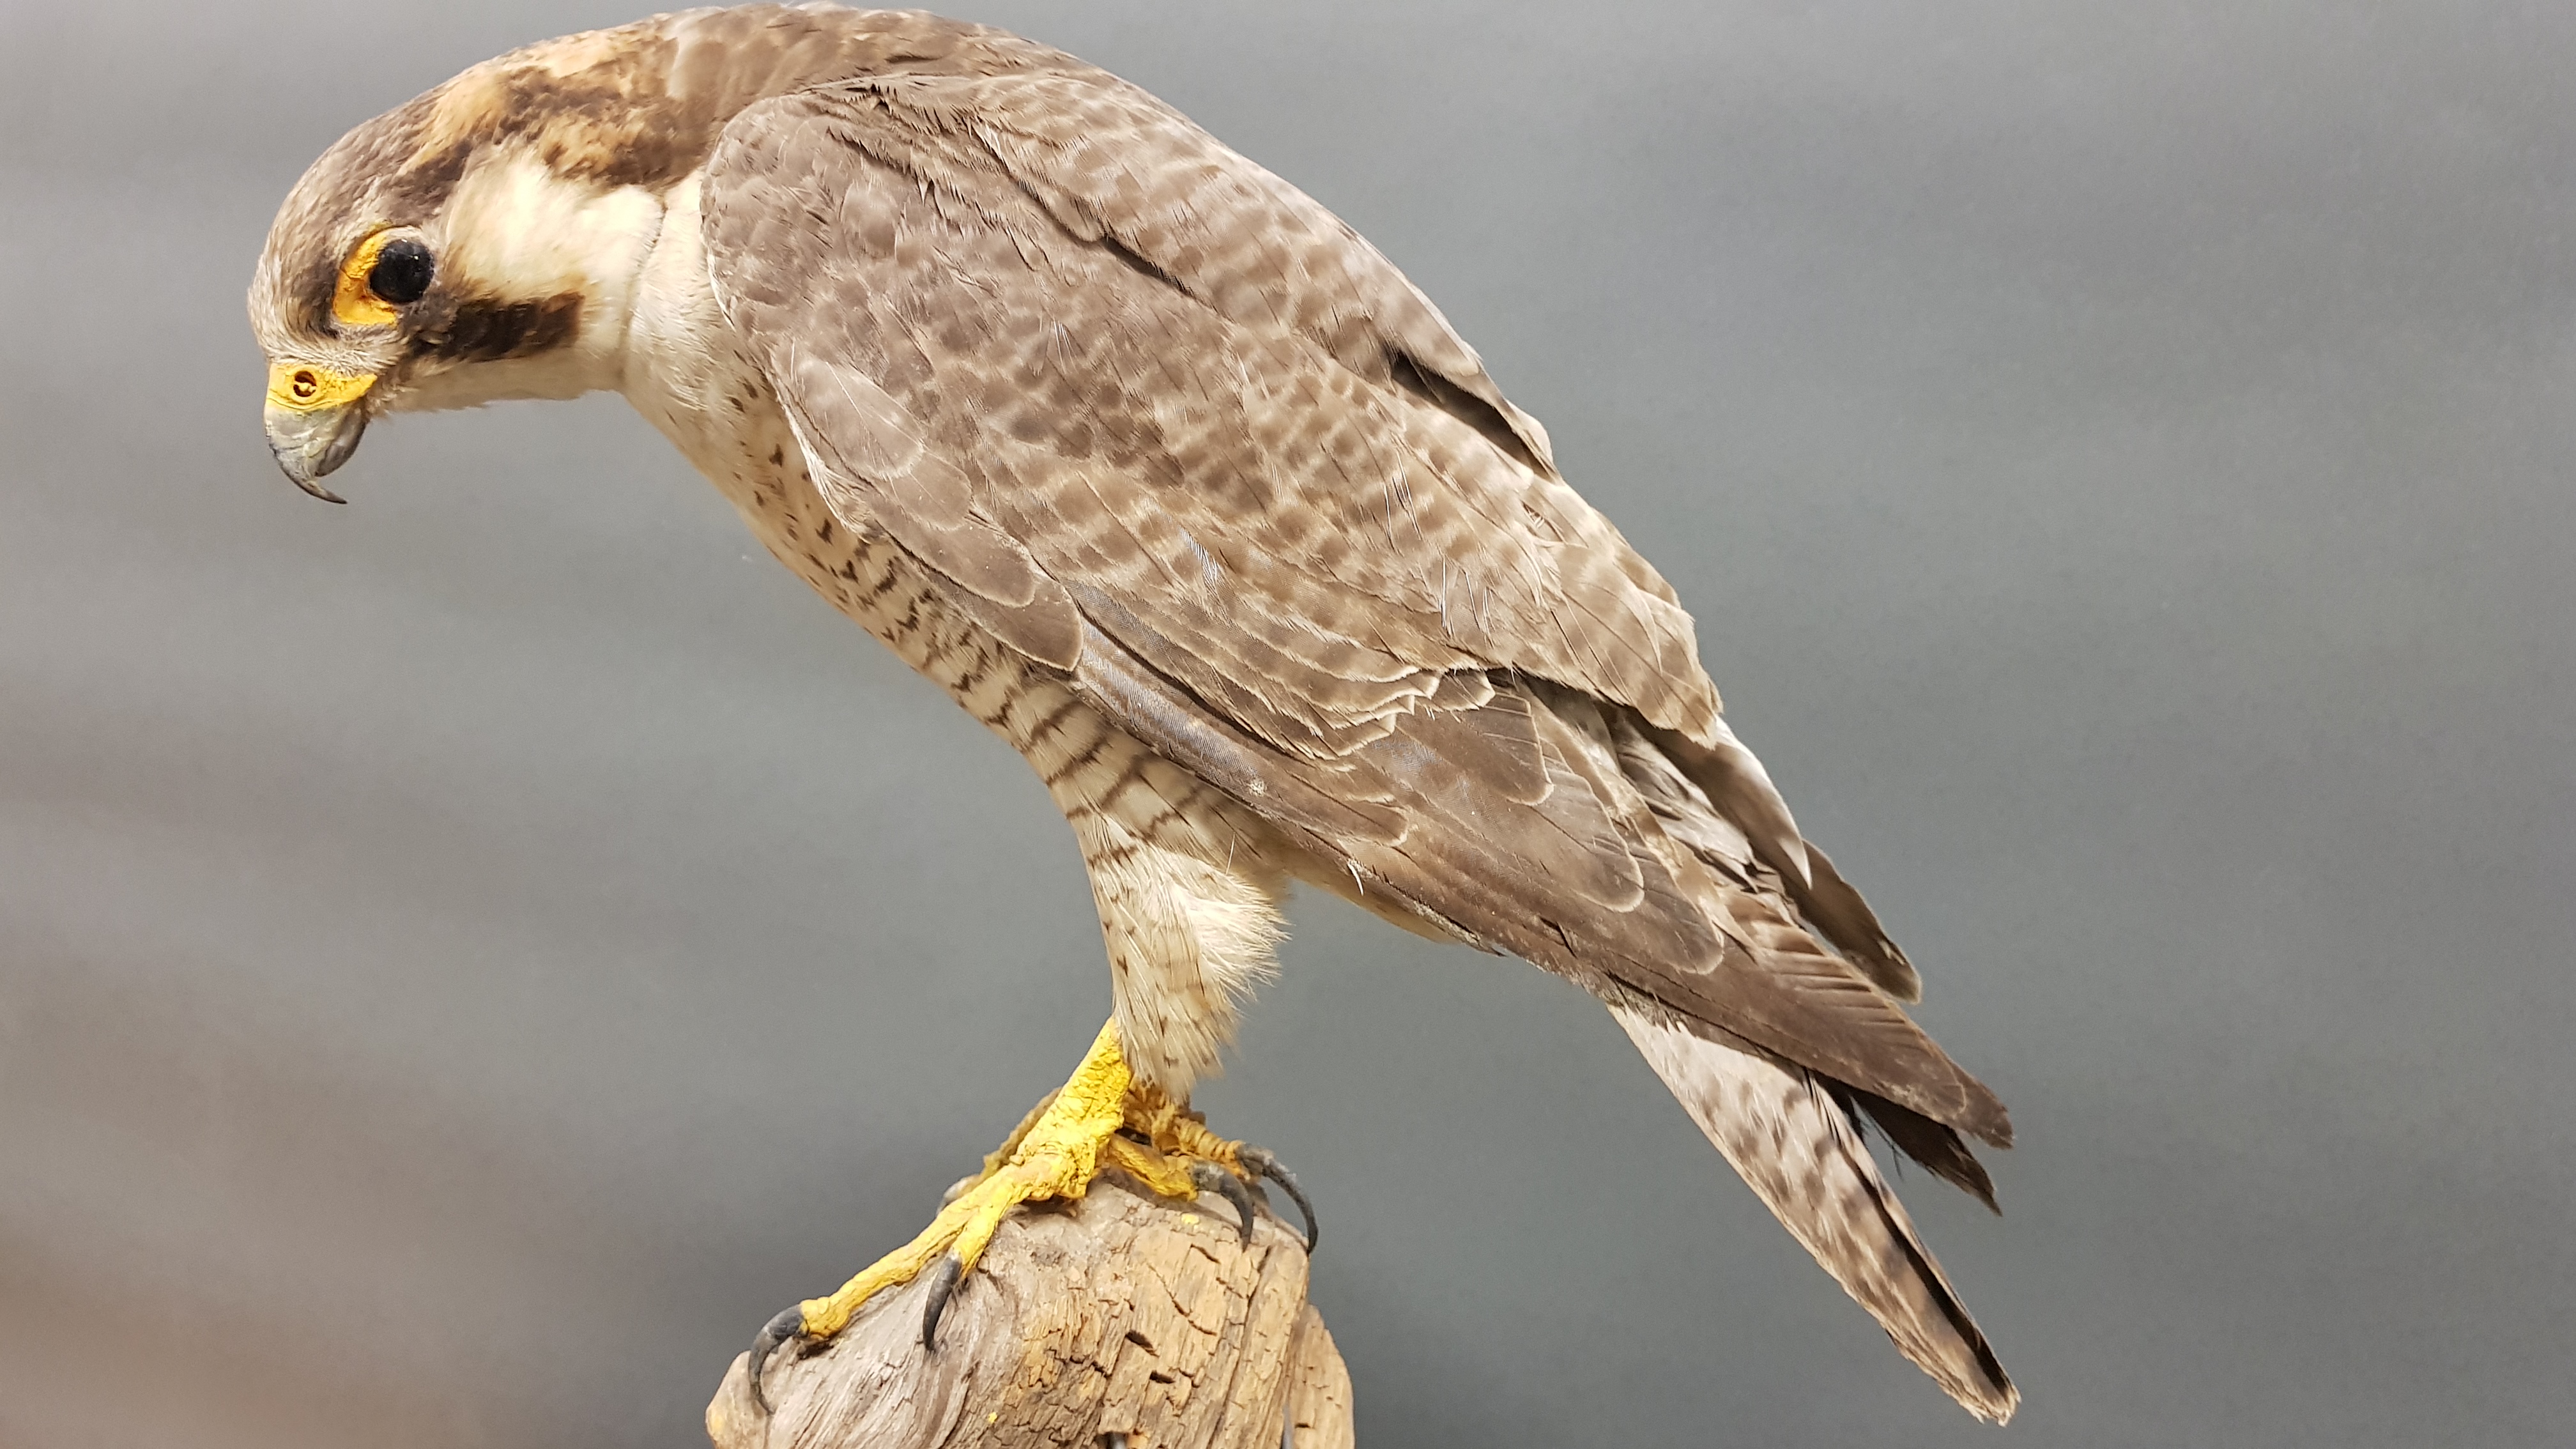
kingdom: Animalia
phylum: Chordata
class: Aves
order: Falconiformes
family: Falconidae
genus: Falco
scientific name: Falco peregrinus
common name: Peregrine falcon
